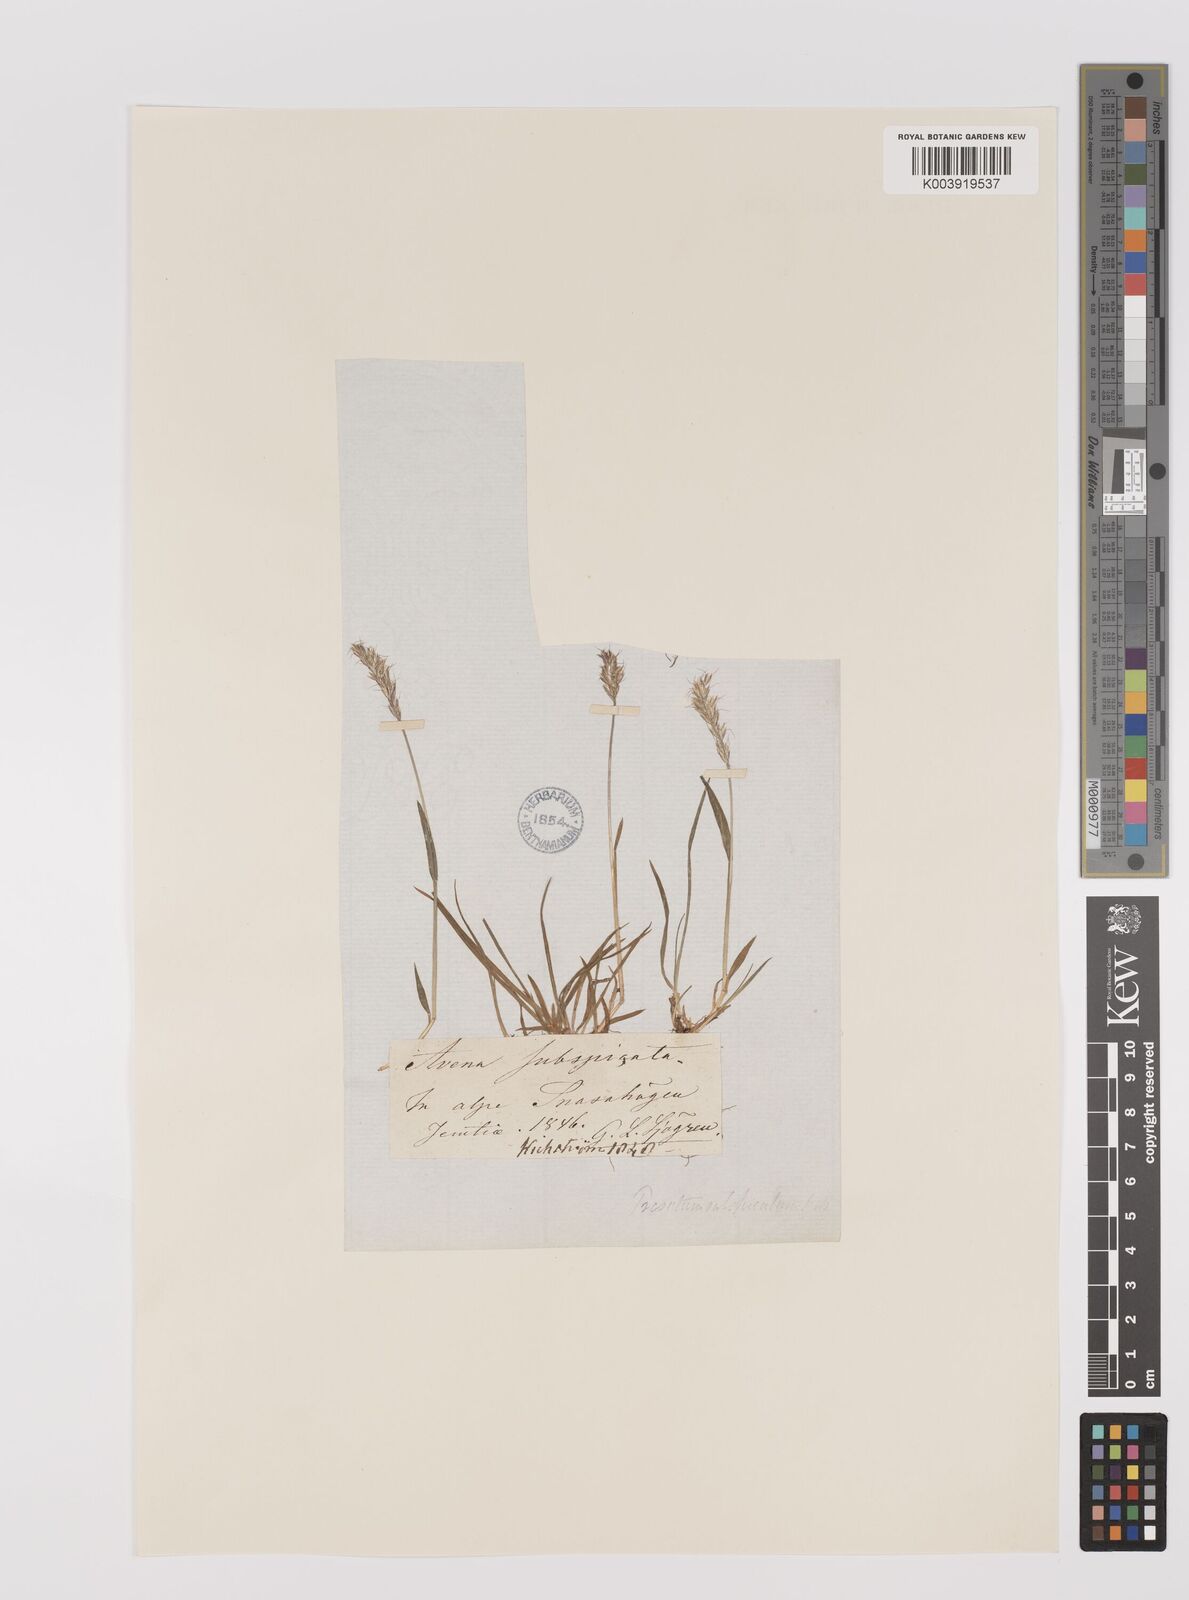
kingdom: Plantae
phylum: Tracheophyta
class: Liliopsida
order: Poales
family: Poaceae
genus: Koeleria
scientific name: Koeleria spicata
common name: Mountain trisetum
